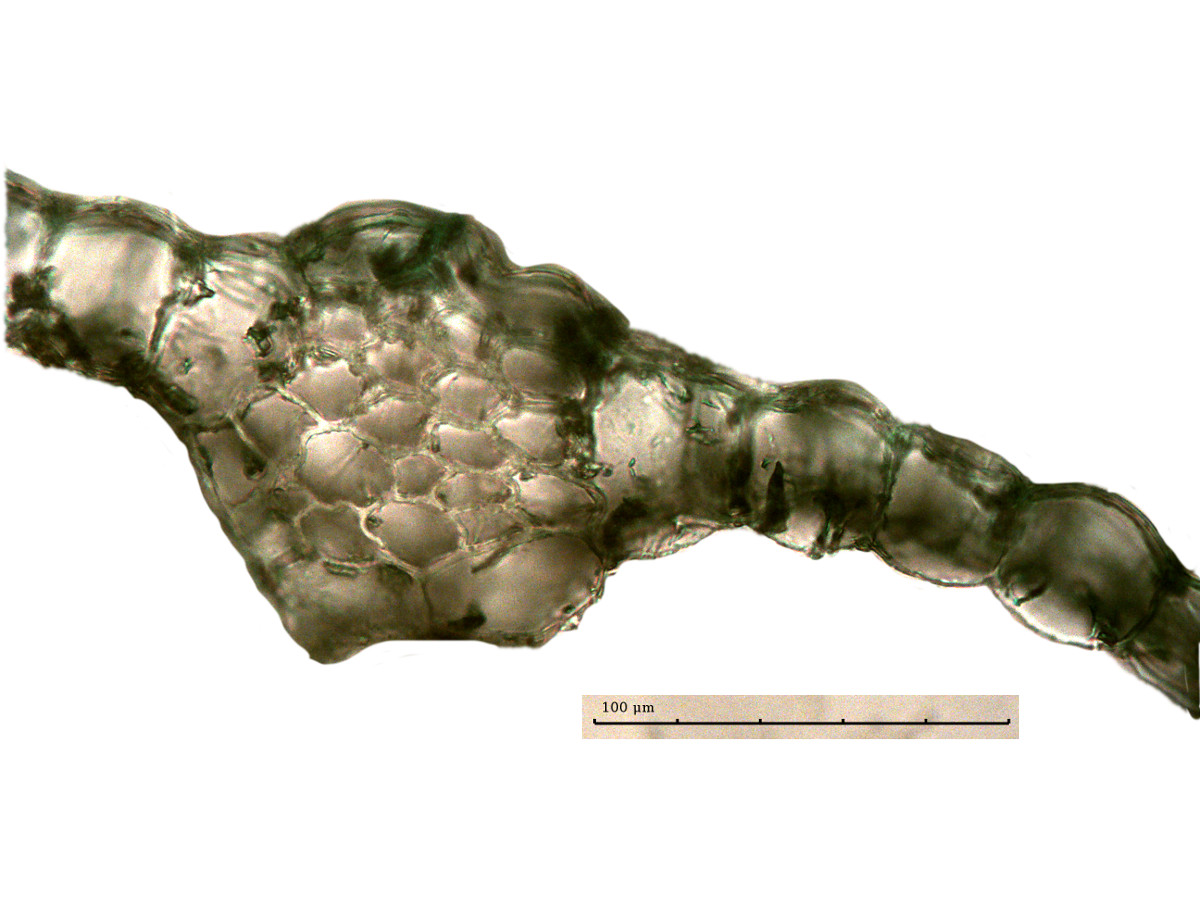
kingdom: Plantae
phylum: Marchantiophyta
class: Jungermanniopsida
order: Metzgeriales
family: Metzgeriaceae
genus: Metzgeria
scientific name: Metzgeria leptoneura
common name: Hooked veilwort
